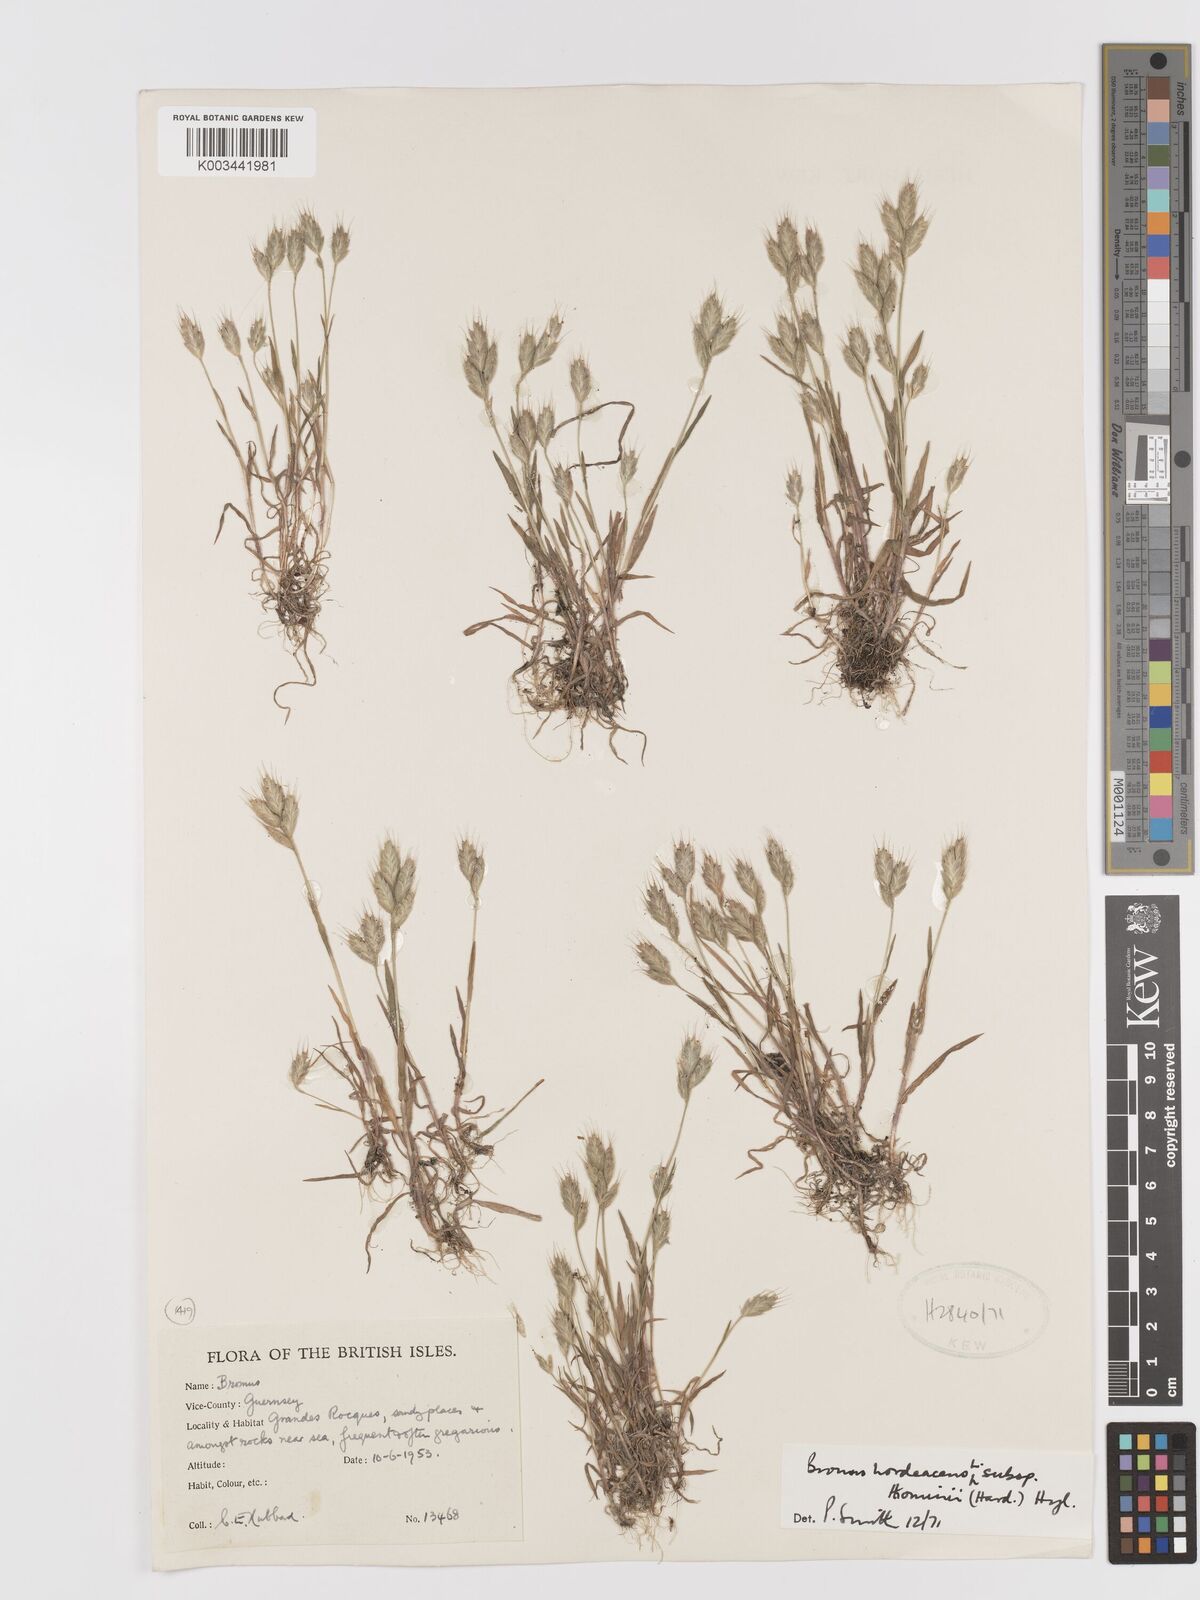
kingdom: Plantae
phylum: Tracheophyta
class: Liliopsida
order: Poales
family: Poaceae
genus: Bromus
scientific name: Bromus hordeaceus
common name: Soft brome
